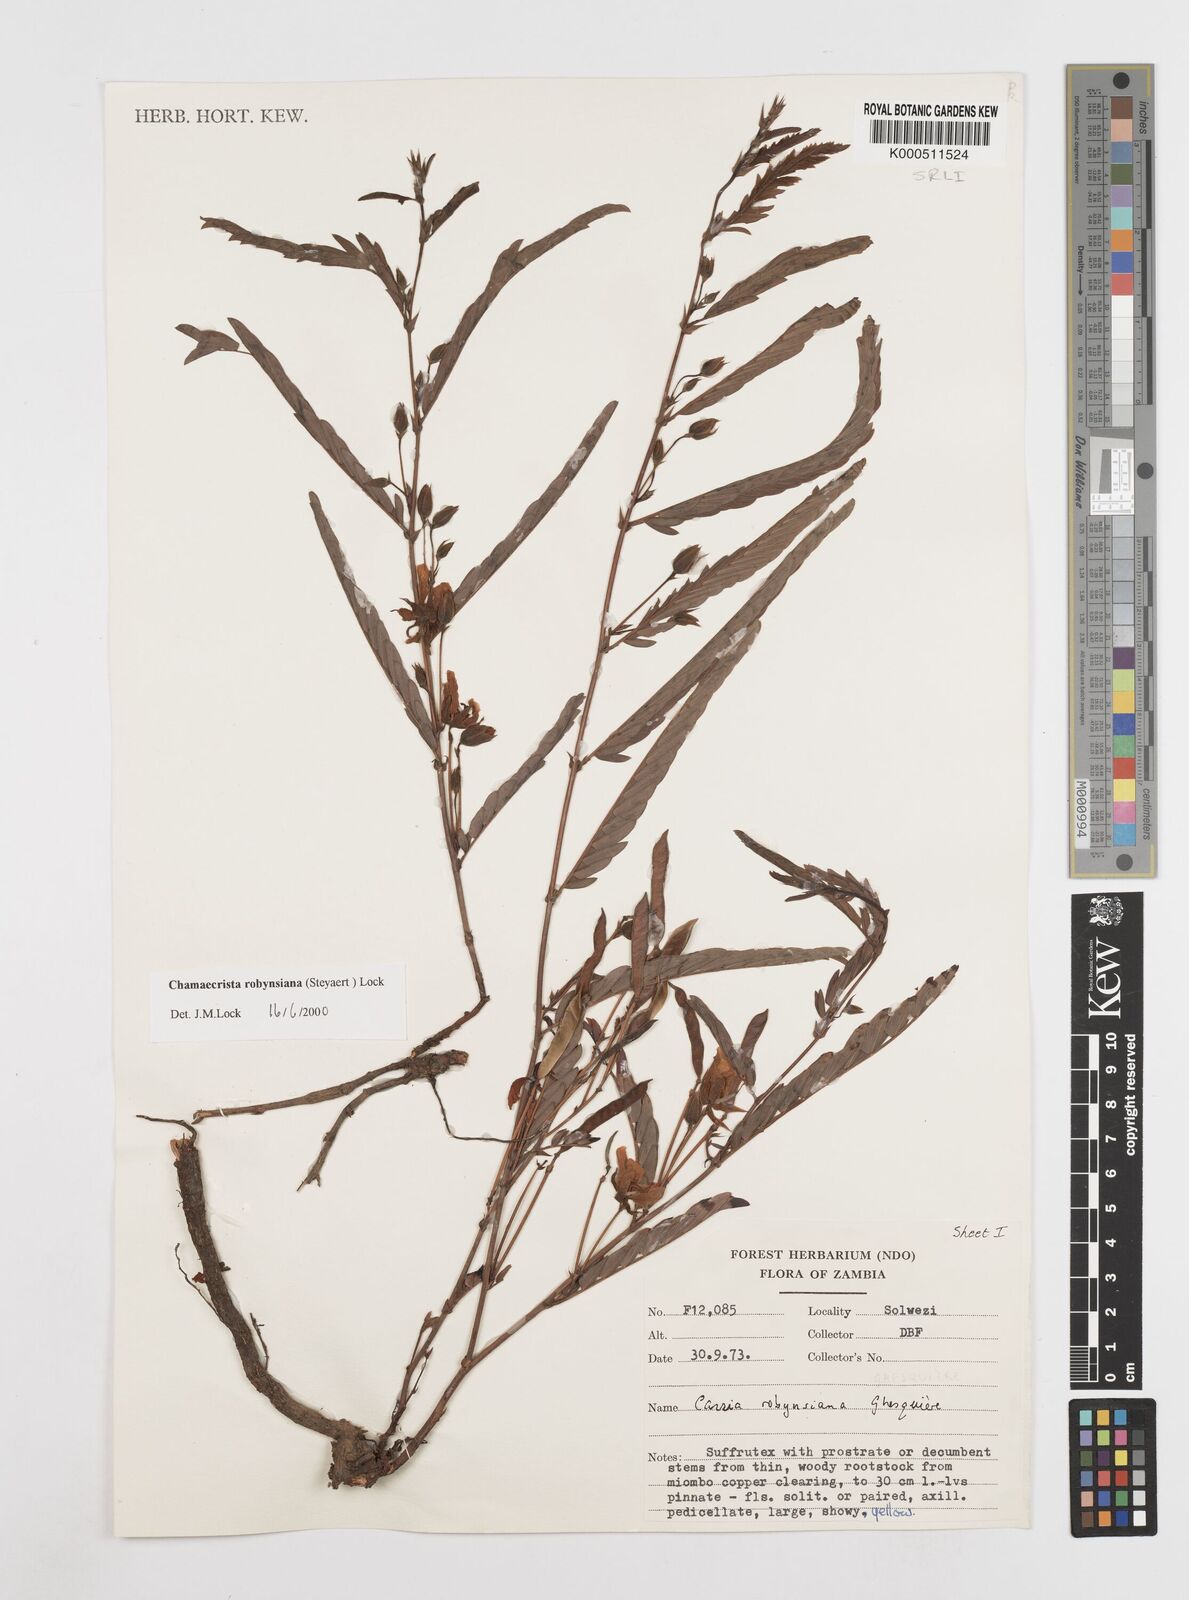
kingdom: Plantae
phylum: Tracheophyta
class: Magnoliopsida
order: Fabales
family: Fabaceae
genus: Chamaecrista
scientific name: Chamaecrista robynsiana
